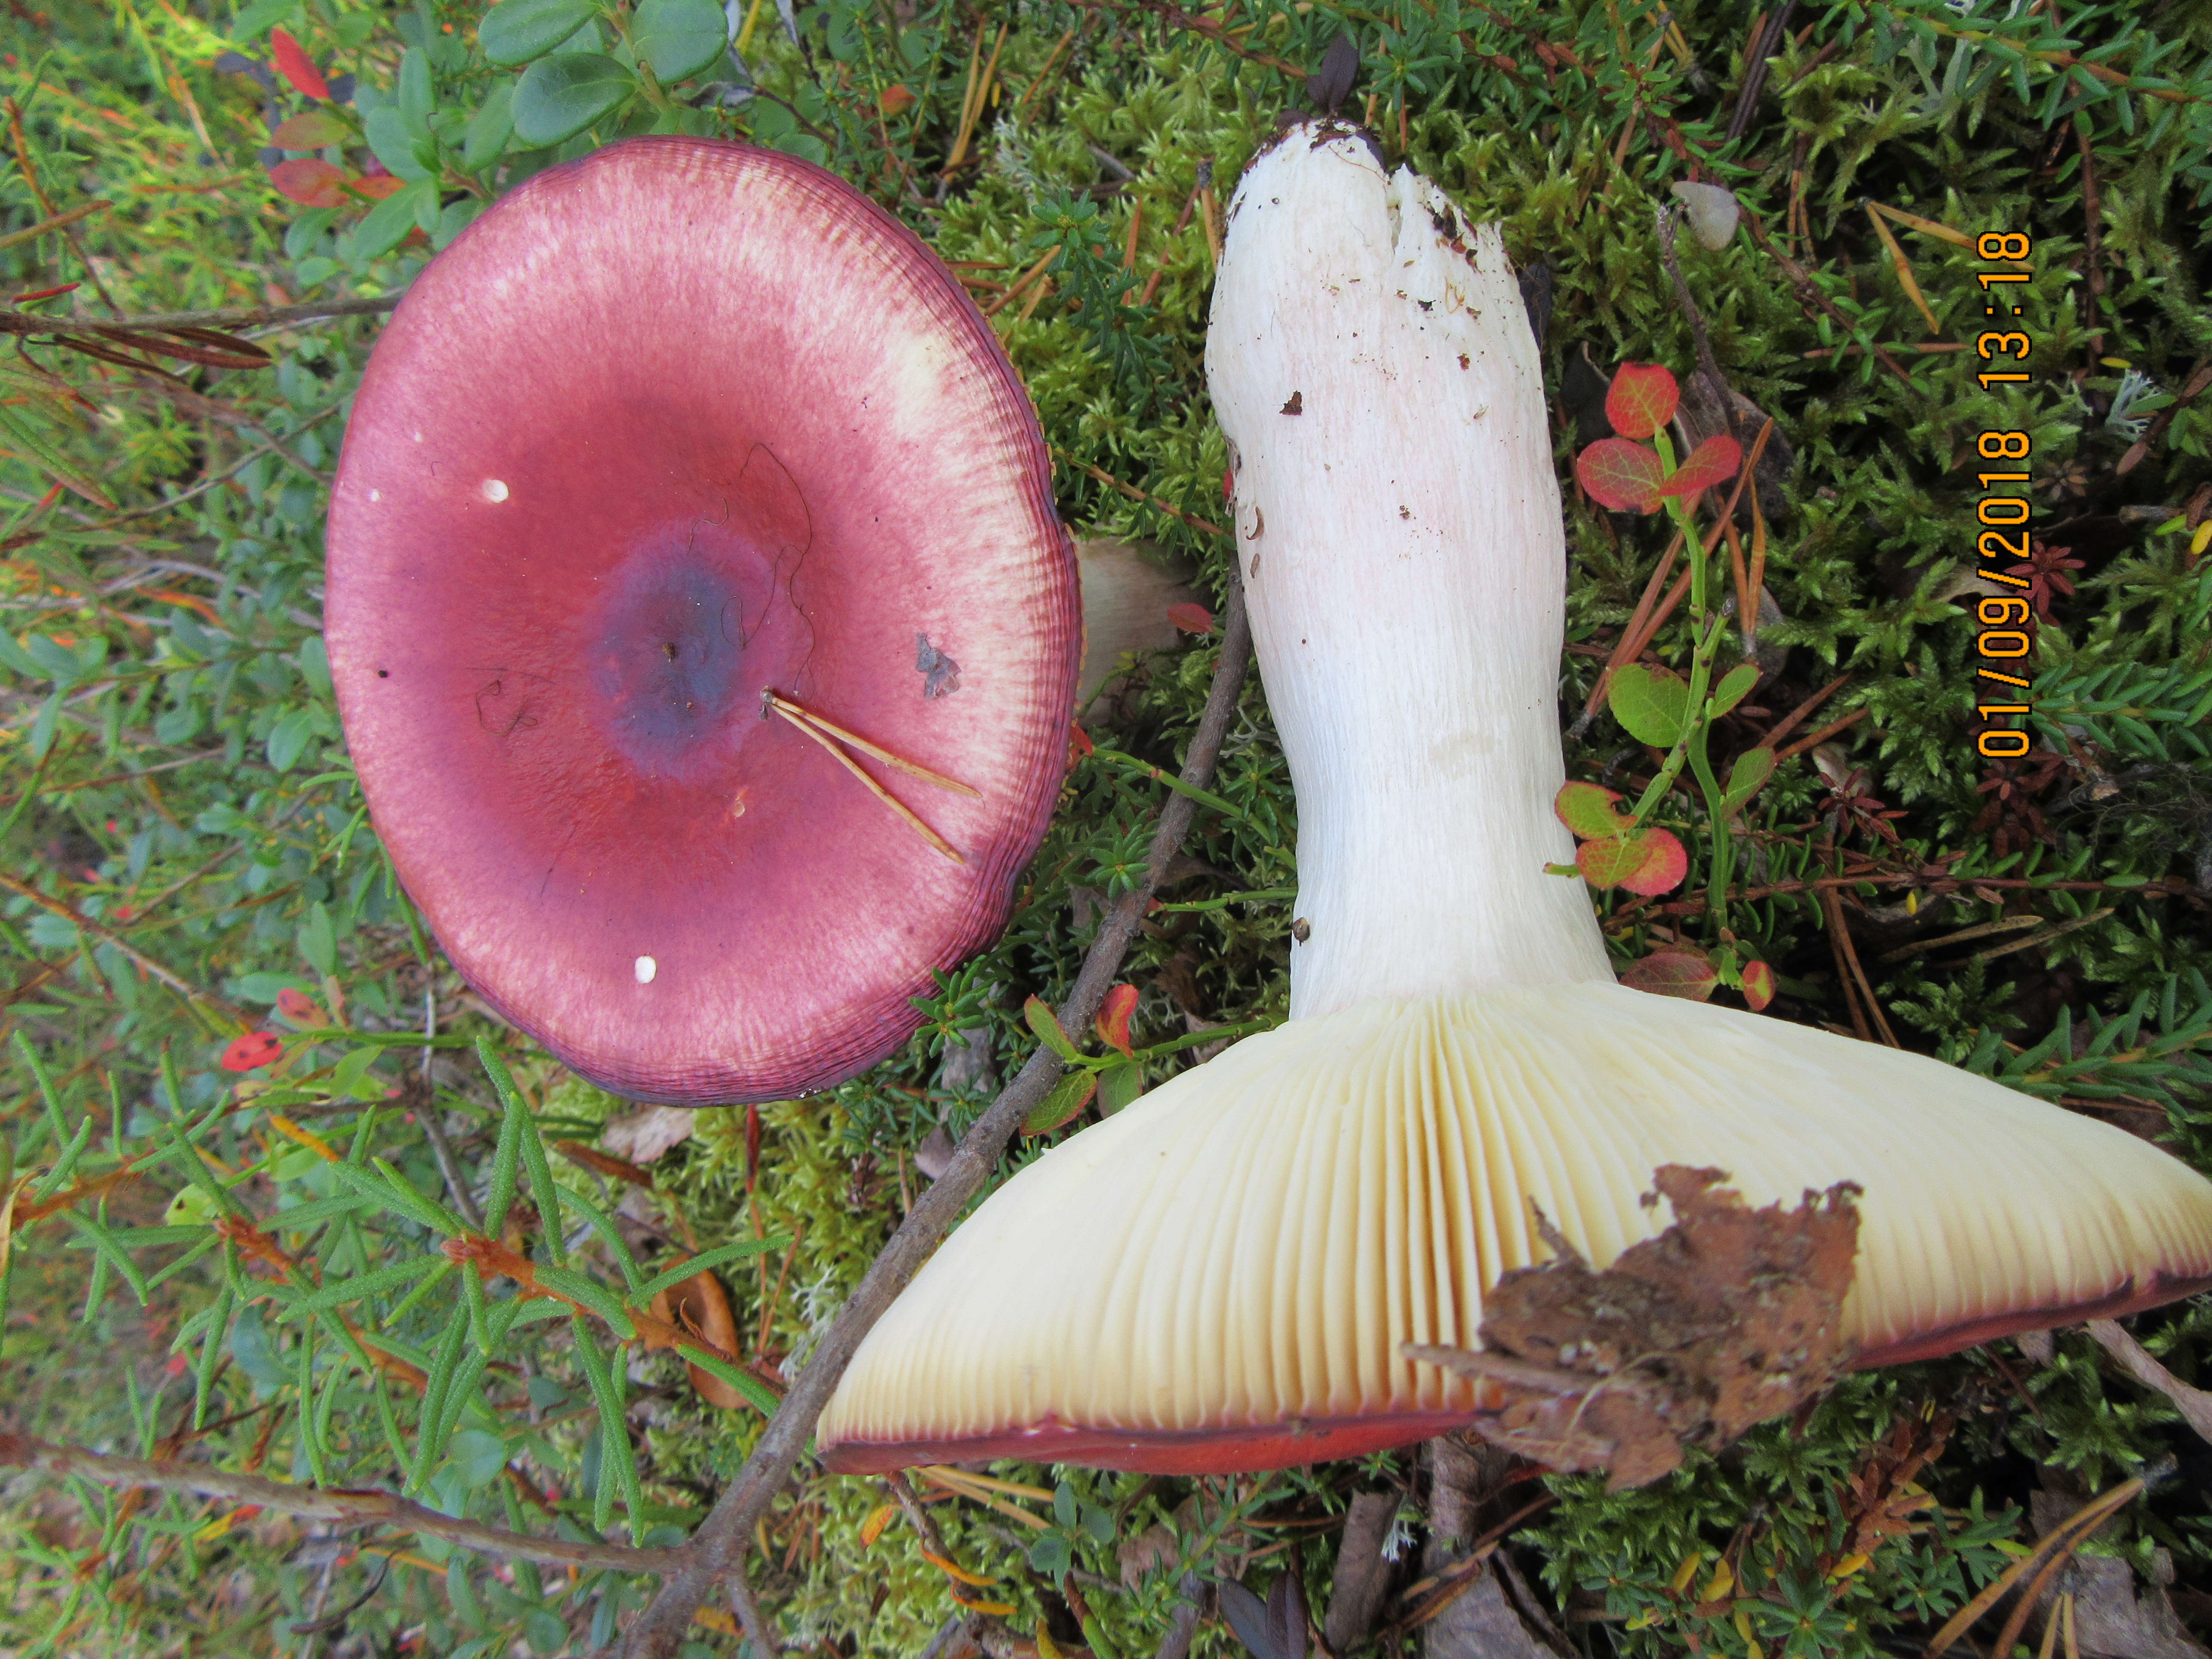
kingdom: Fungi
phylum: Basidiomycota
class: Agaricomycetes
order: Russulales
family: Russulaceae
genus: Russula
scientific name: Russula paludosa
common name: Hintapink
